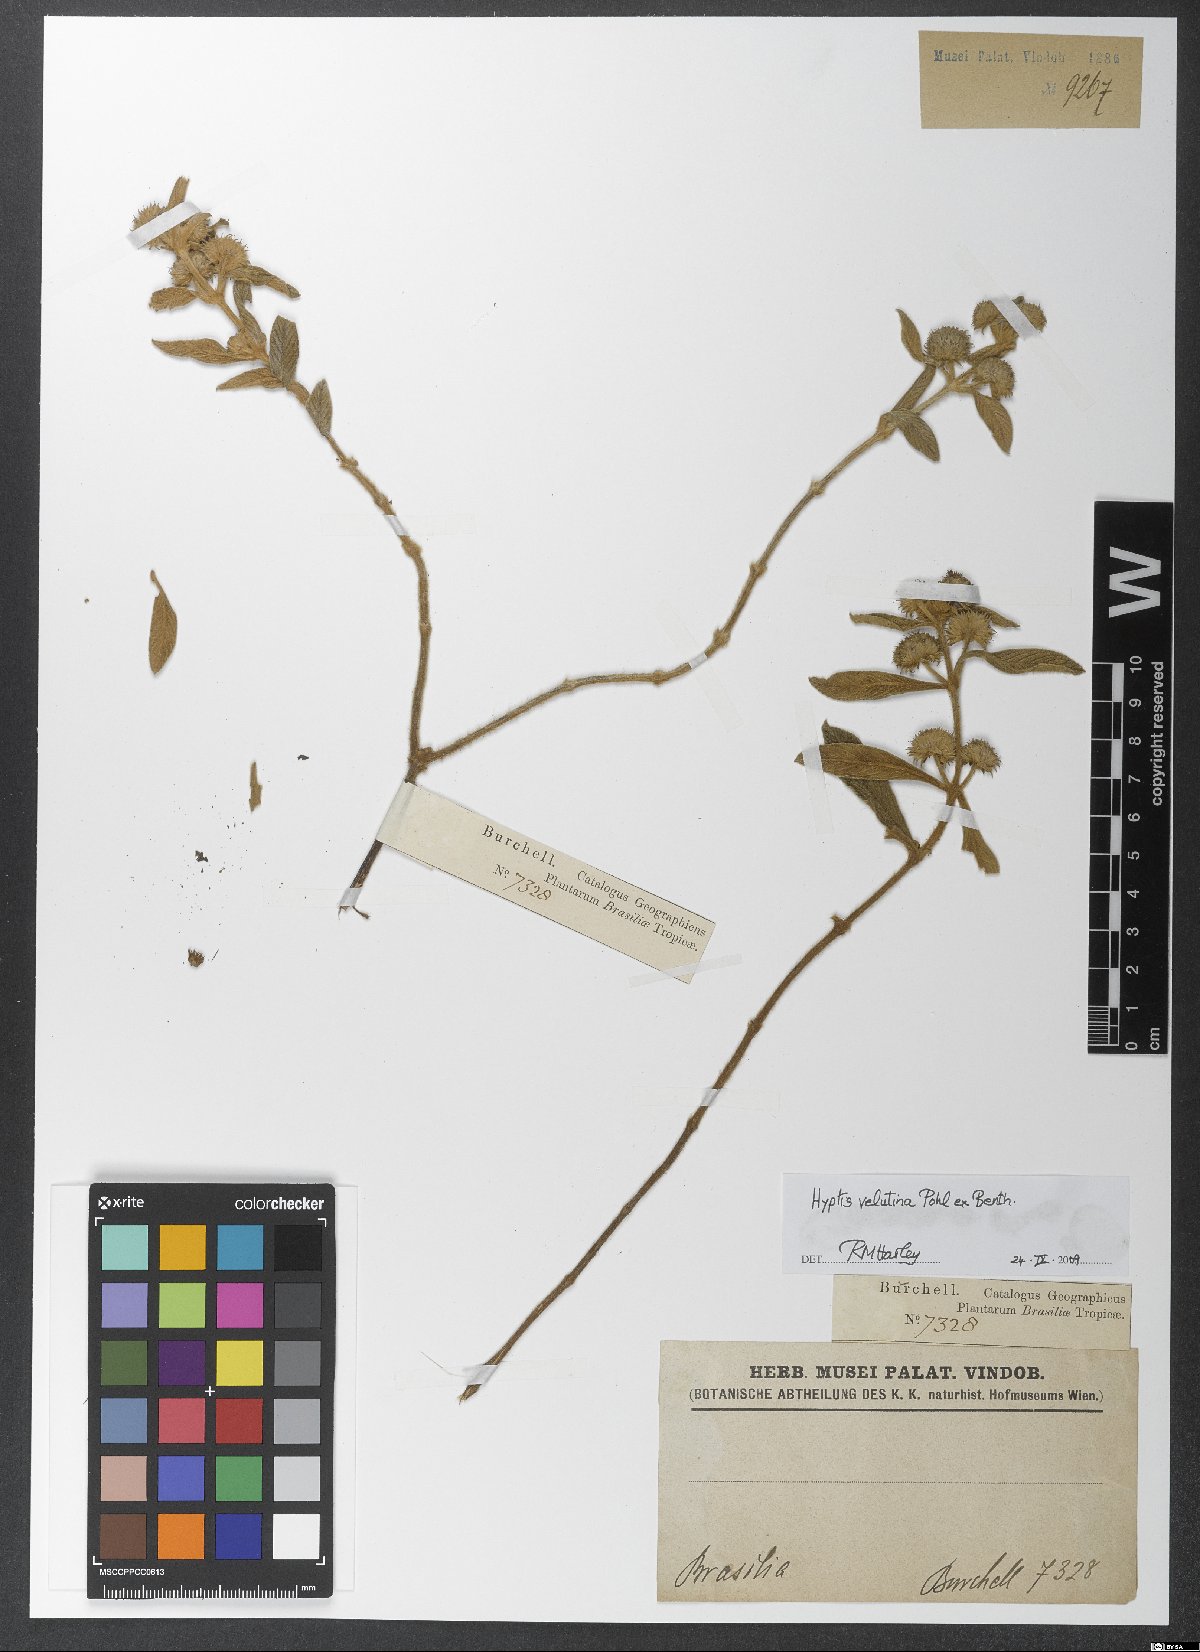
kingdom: Plantae
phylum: Tracheophyta
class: Magnoliopsida
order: Lamiales
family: Lamiaceae
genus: Hyptis
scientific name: Hyptis velutina
